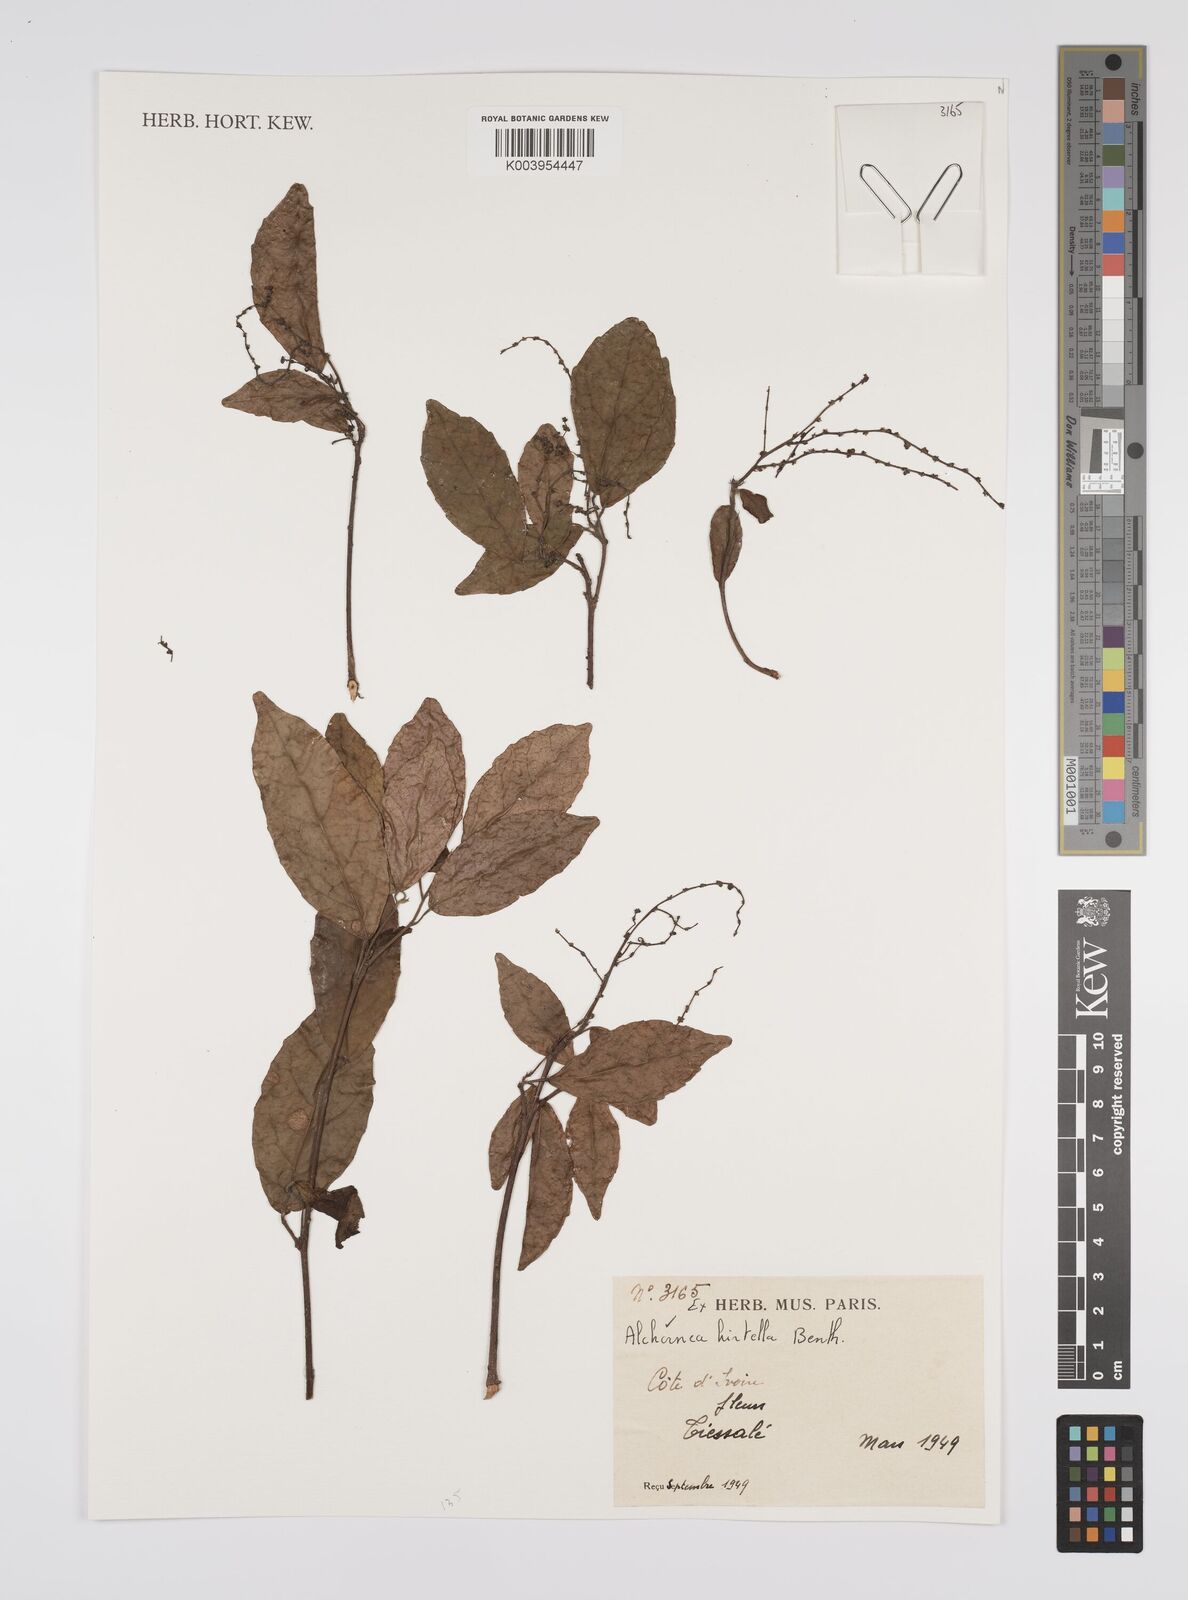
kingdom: Plantae
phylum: Tracheophyta
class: Magnoliopsida
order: Malpighiales
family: Euphorbiaceae
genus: Alchornea
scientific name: Alchornea hirtella
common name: Forest bead-string
